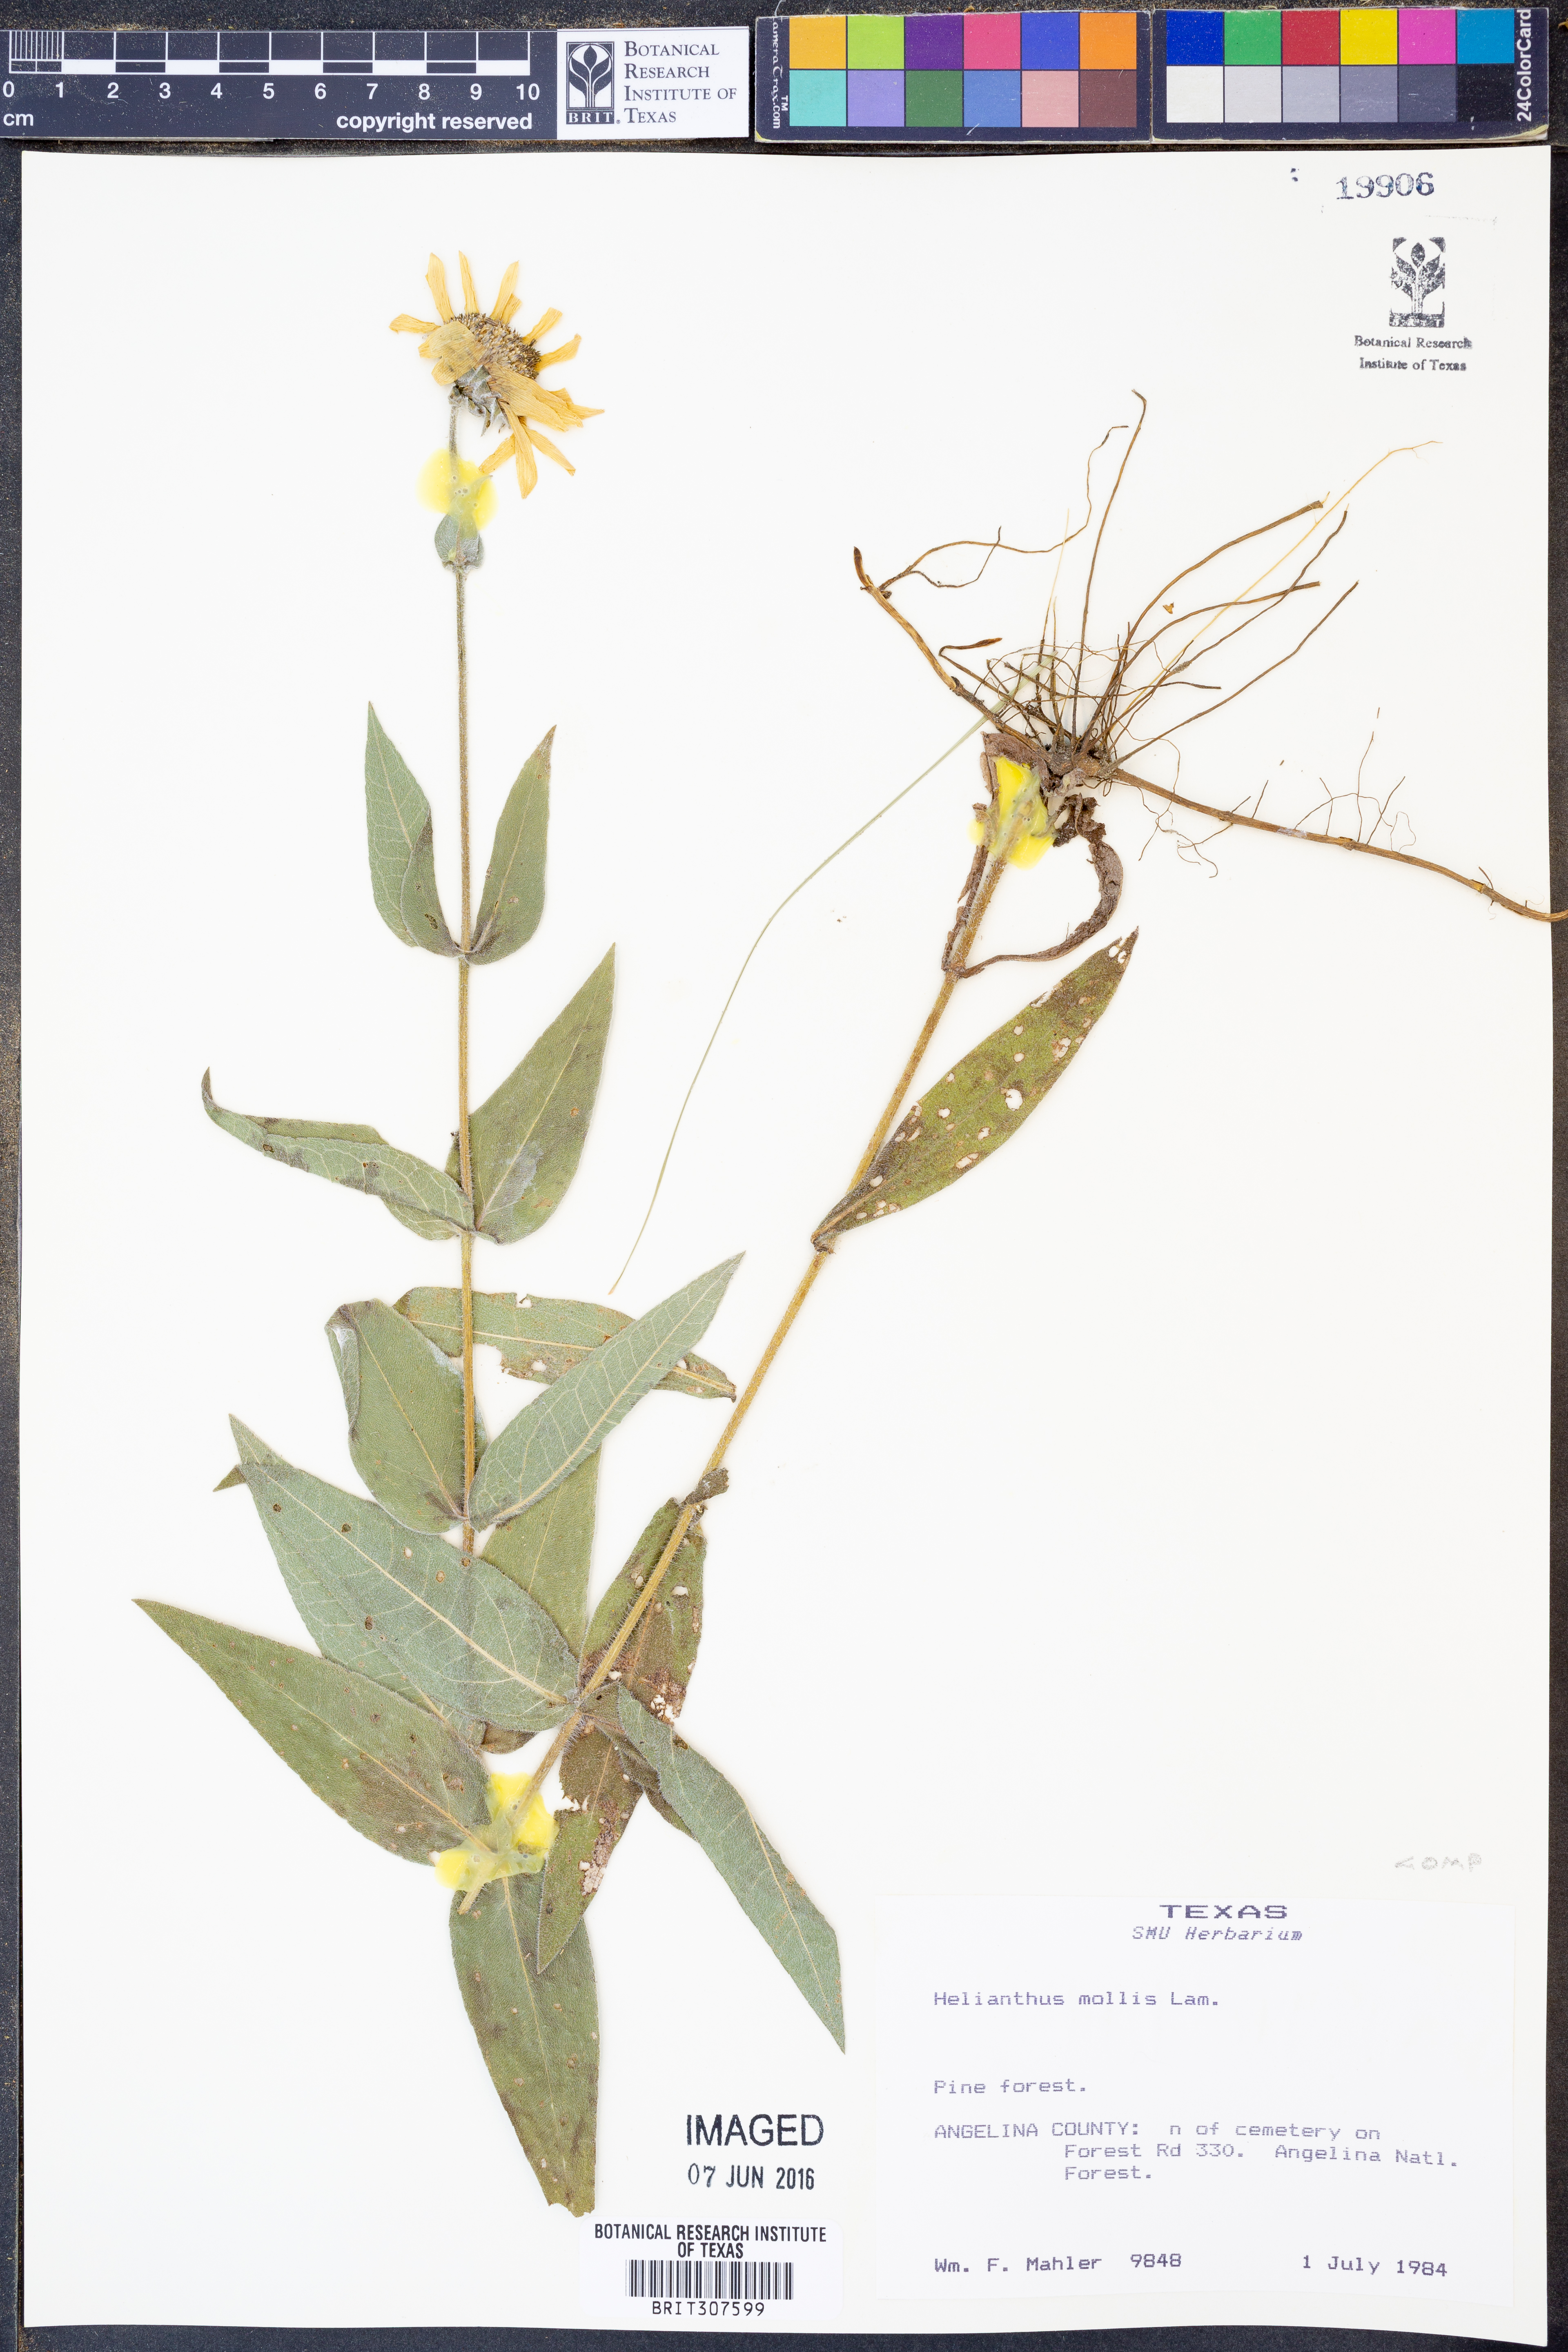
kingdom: Plantae
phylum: Tracheophyta
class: Magnoliopsida
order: Asterales
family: Asteraceae
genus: Helianthus
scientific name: Helianthus mollis
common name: Ashy sunflower
